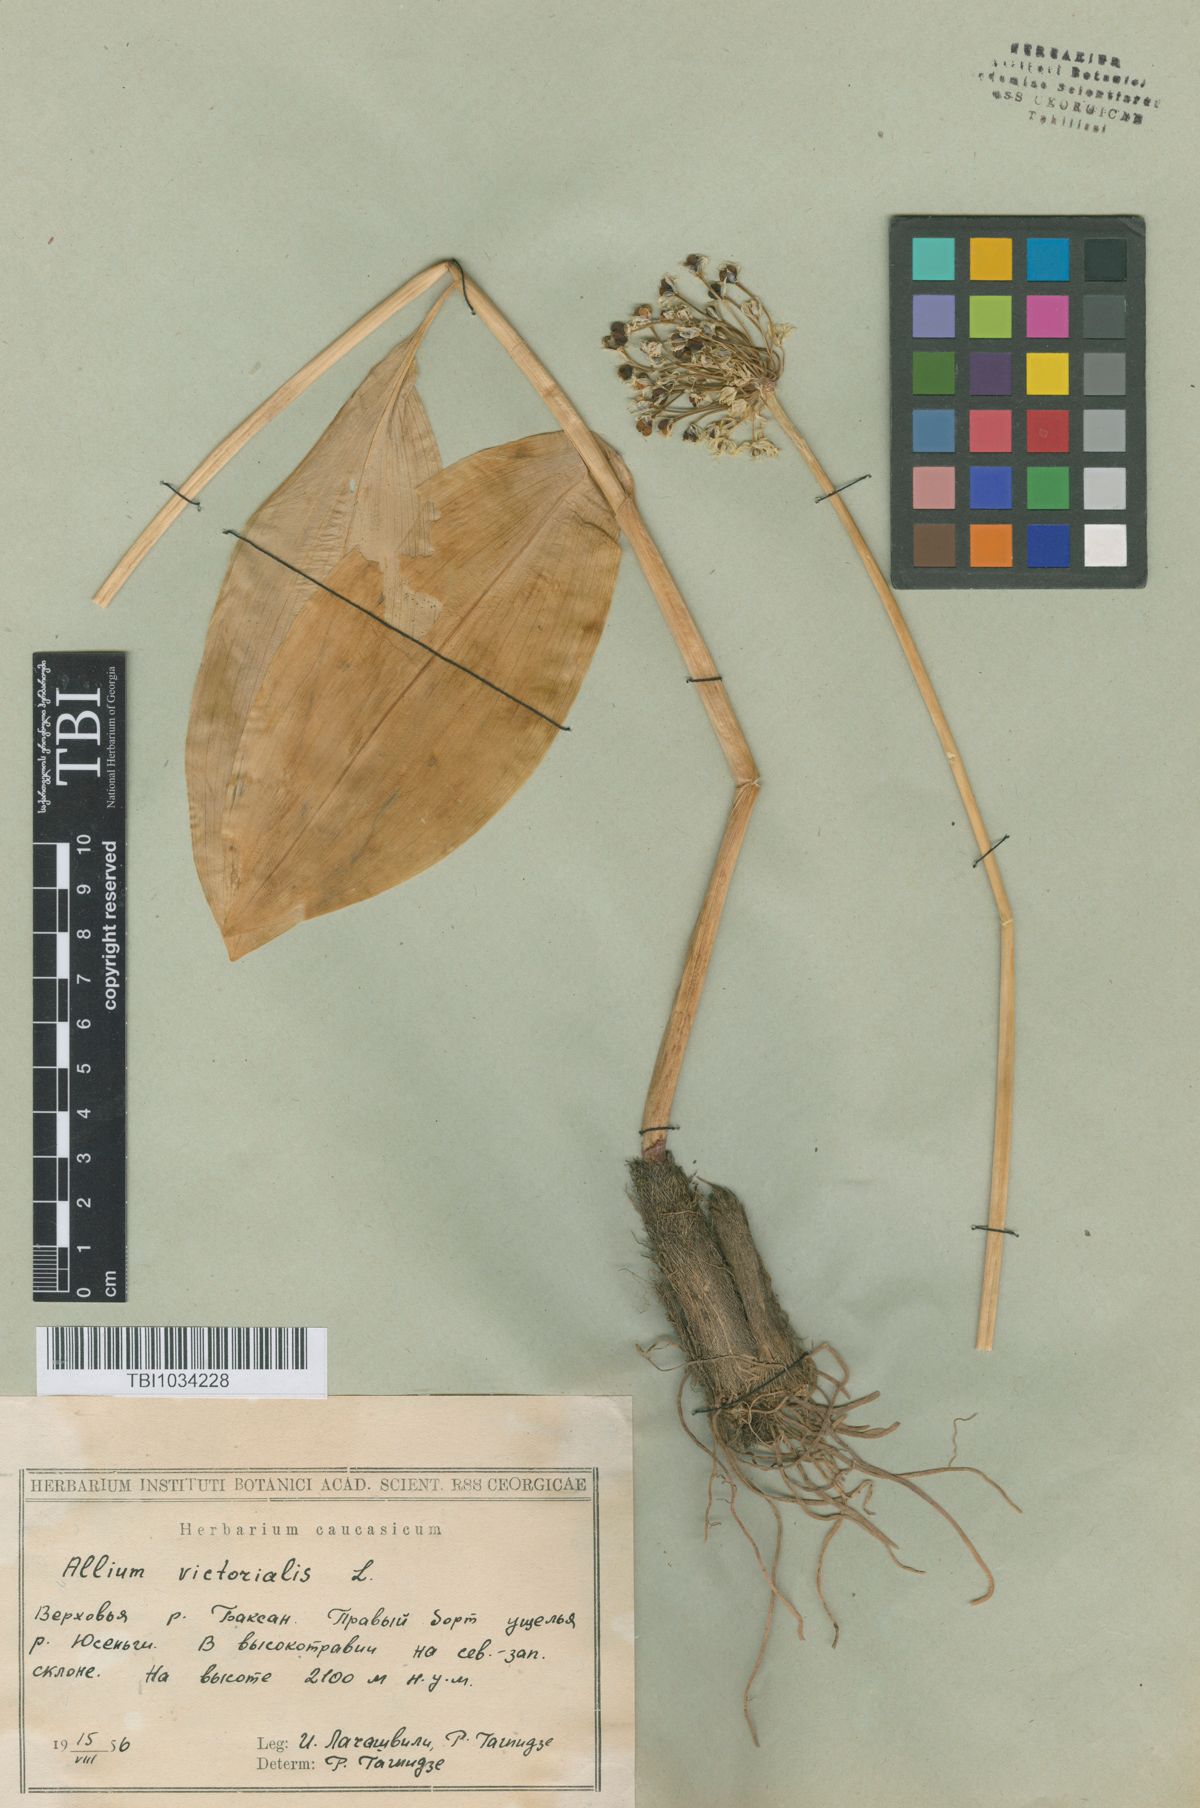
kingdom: Plantae
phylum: Tracheophyta
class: Liliopsida
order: Asparagales
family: Amaryllidaceae
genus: Allium
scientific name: Allium victorialis
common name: Alpine leek
